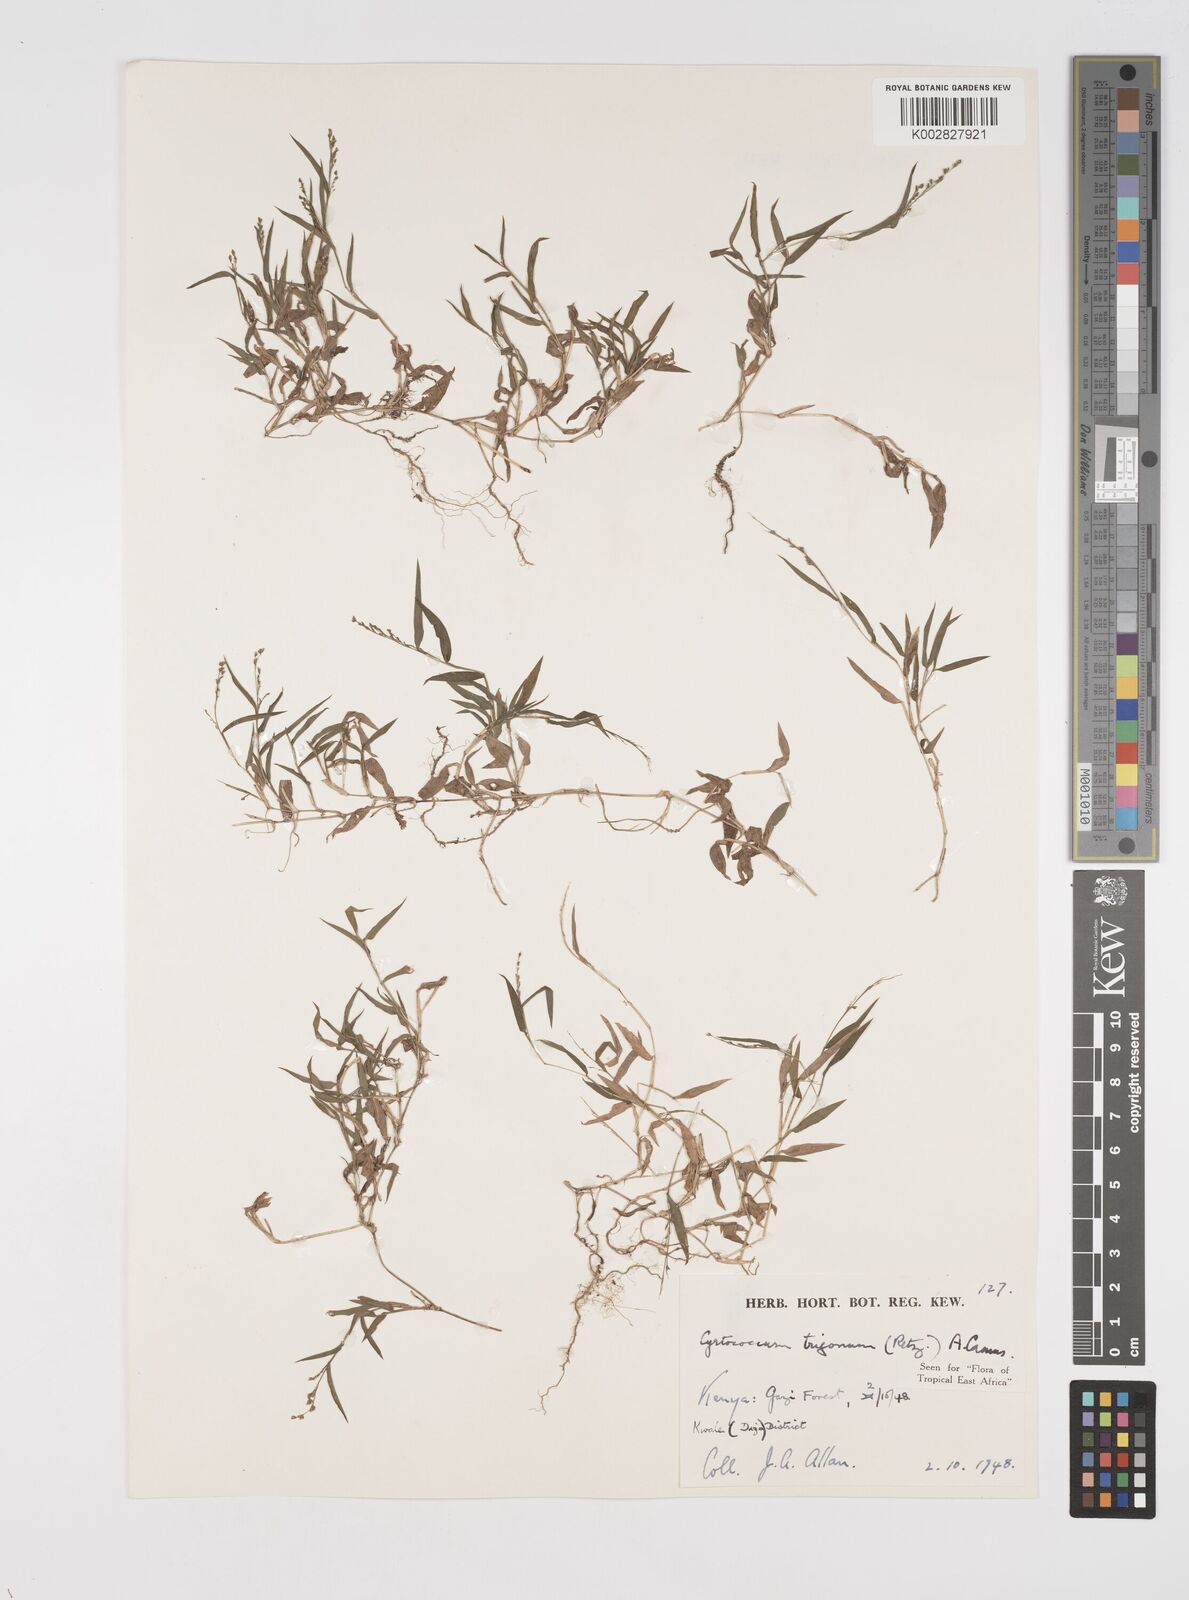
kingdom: Plantae
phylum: Tracheophyta
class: Liliopsida
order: Poales
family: Poaceae
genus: Cyrtococcum
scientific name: Cyrtococcum trigonum
